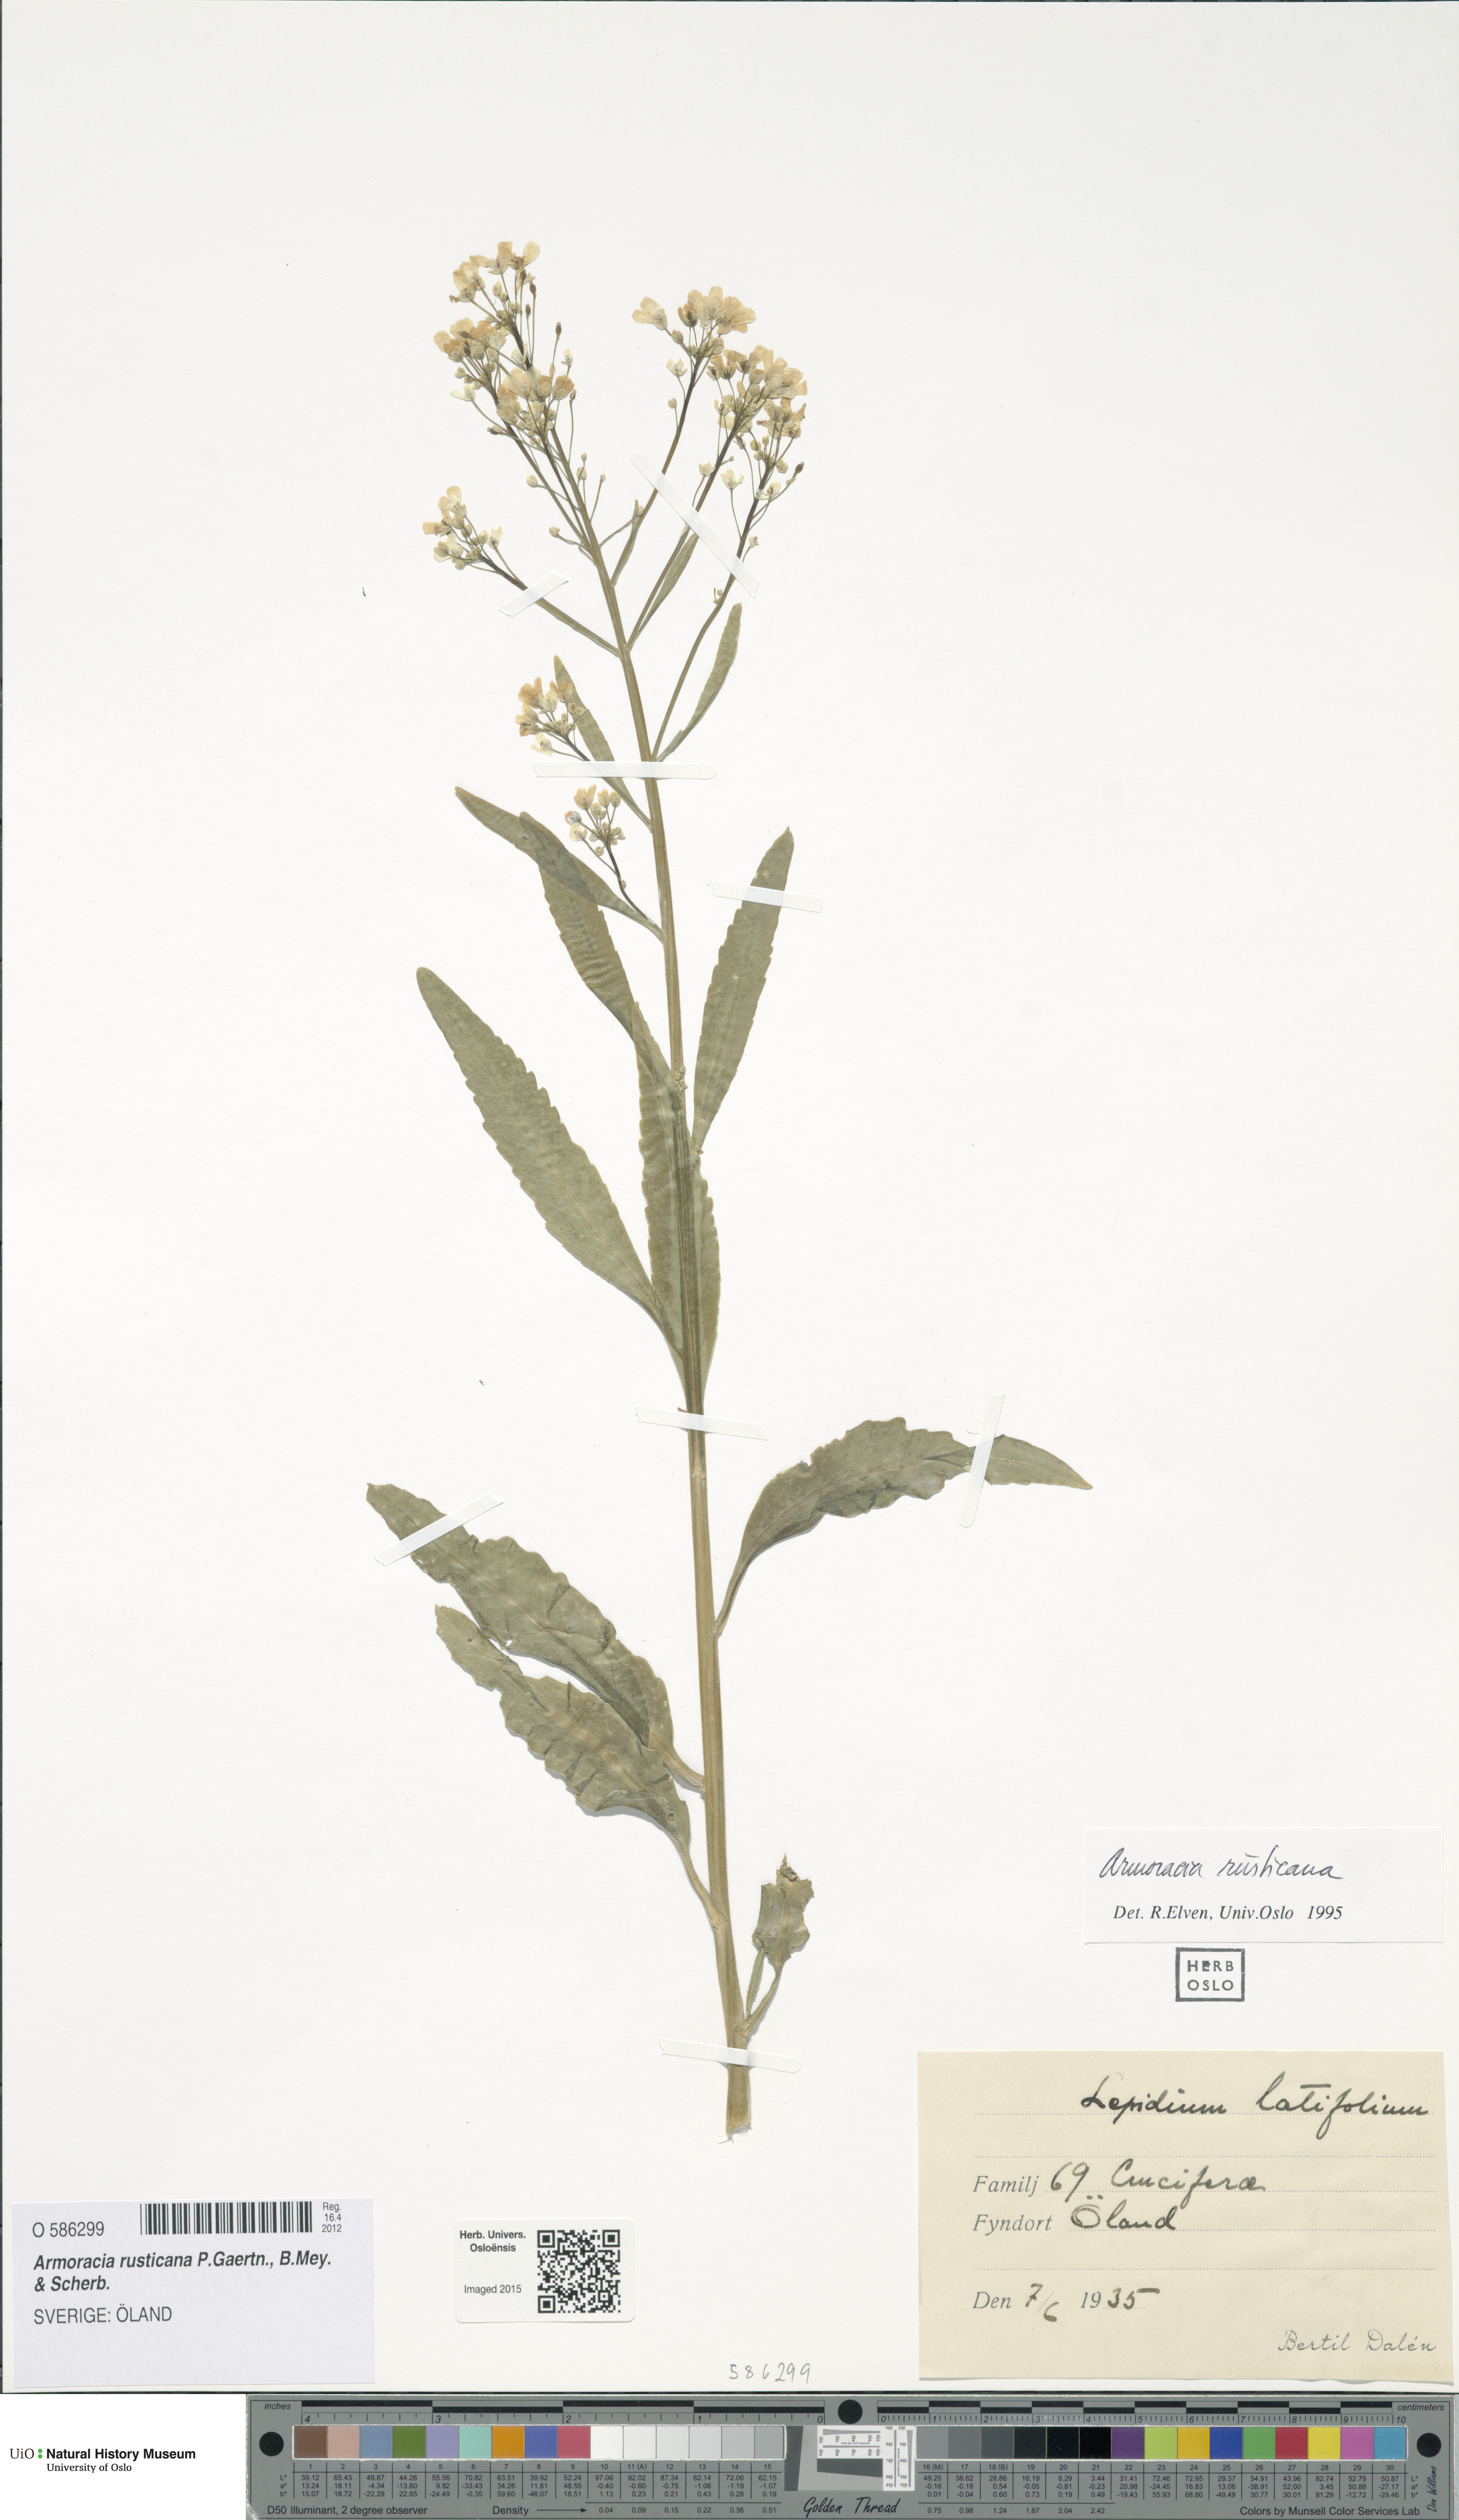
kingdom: Plantae
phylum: Tracheophyta
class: Magnoliopsida
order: Brassicales
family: Brassicaceae
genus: Armoracia
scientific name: Armoracia rusticana
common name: Horseradish
